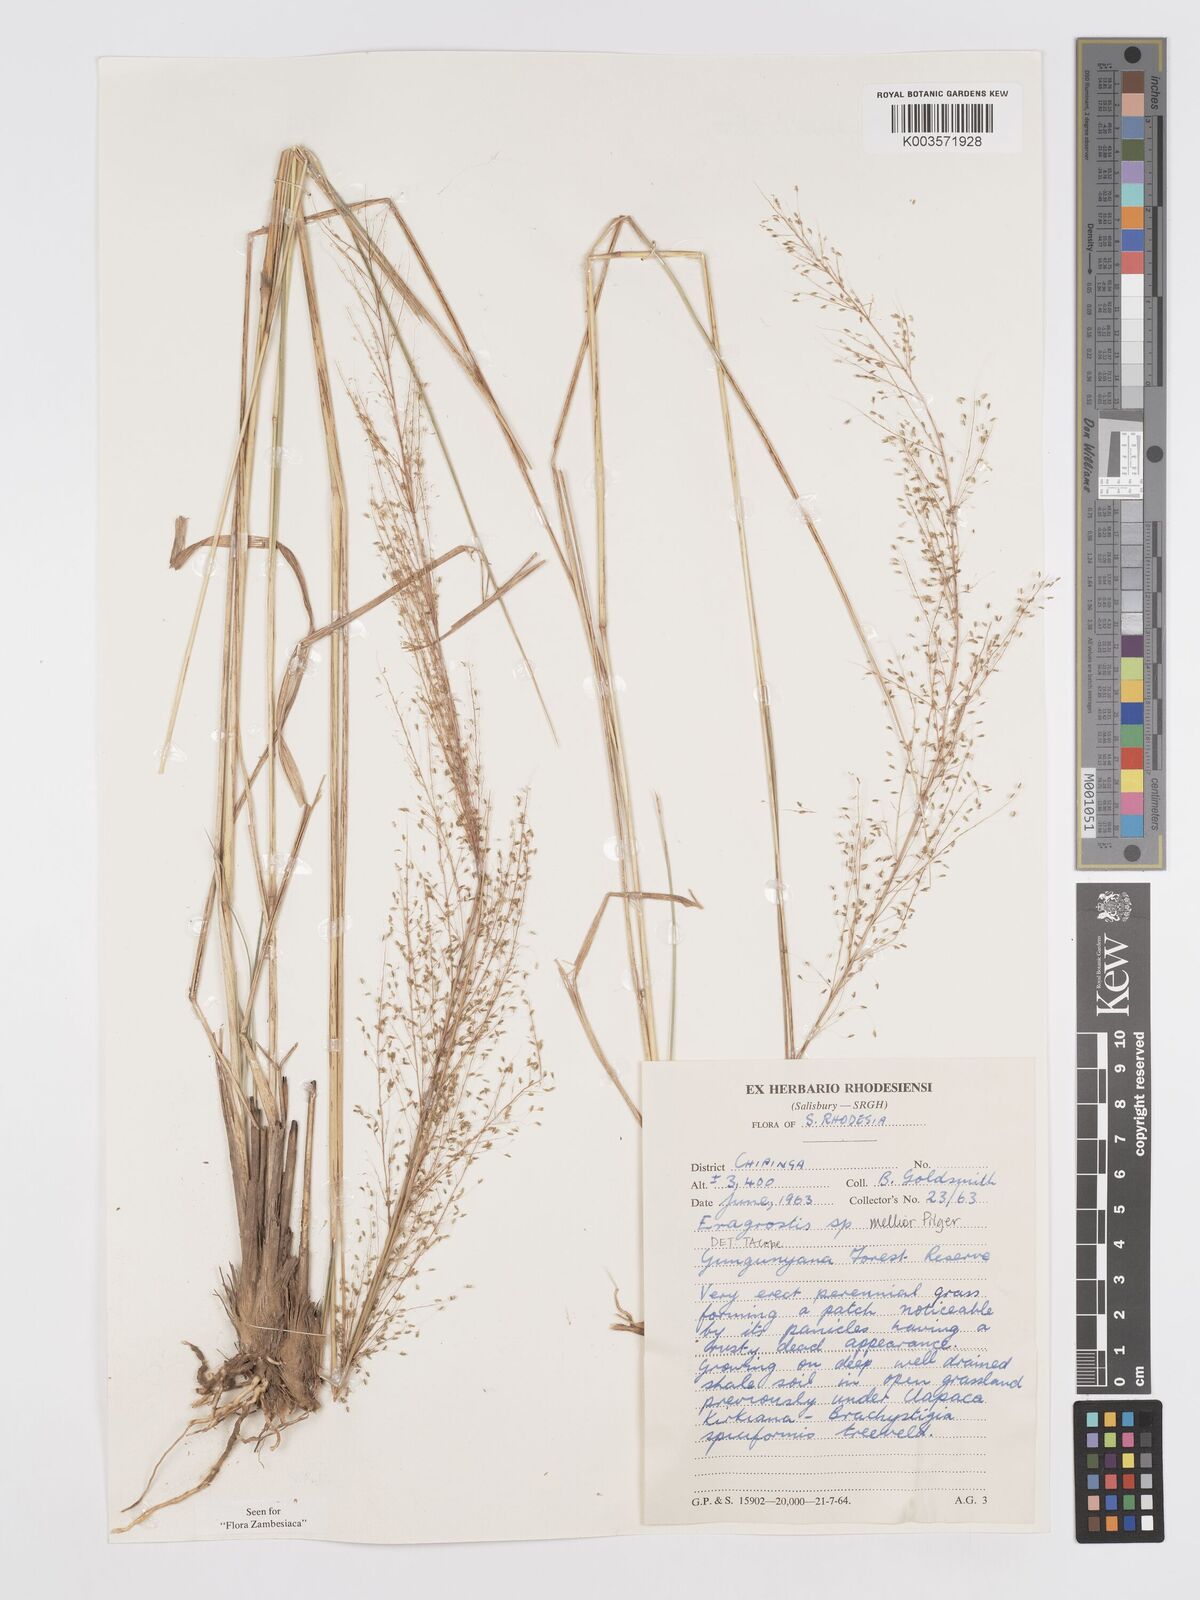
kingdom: Plantae
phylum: Tracheophyta
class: Liliopsida
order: Poales
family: Poaceae
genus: Eragrostis
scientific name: Eragrostis mollior
